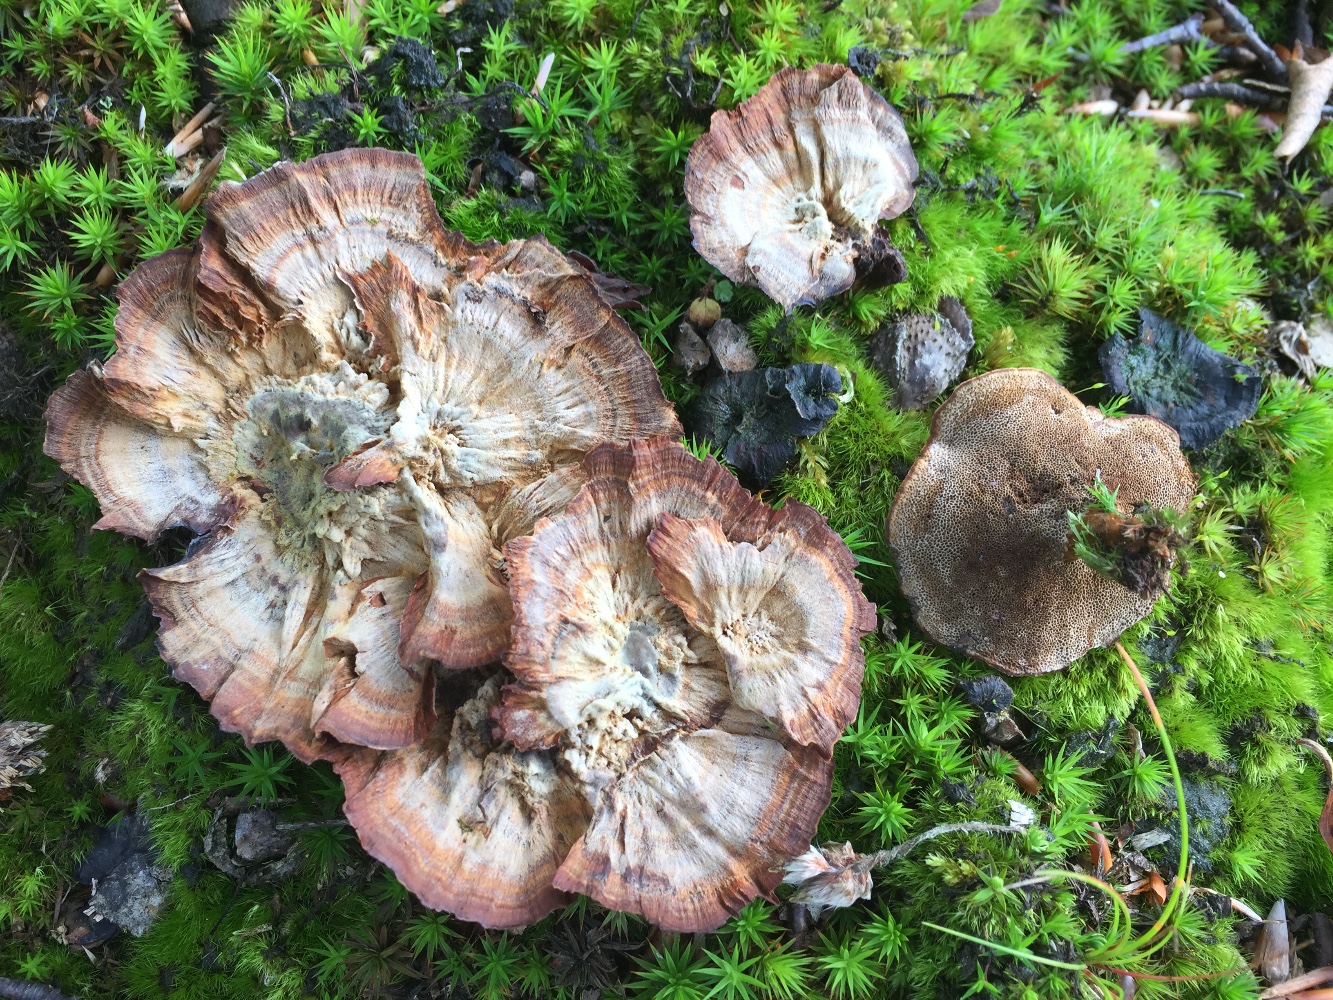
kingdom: Fungi
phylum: Basidiomycota
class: Agaricomycetes
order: Hymenochaetales
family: Hymenochaetaceae
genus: Coltricia
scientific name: Coltricia perennis
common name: almindelig sandporesvamp
